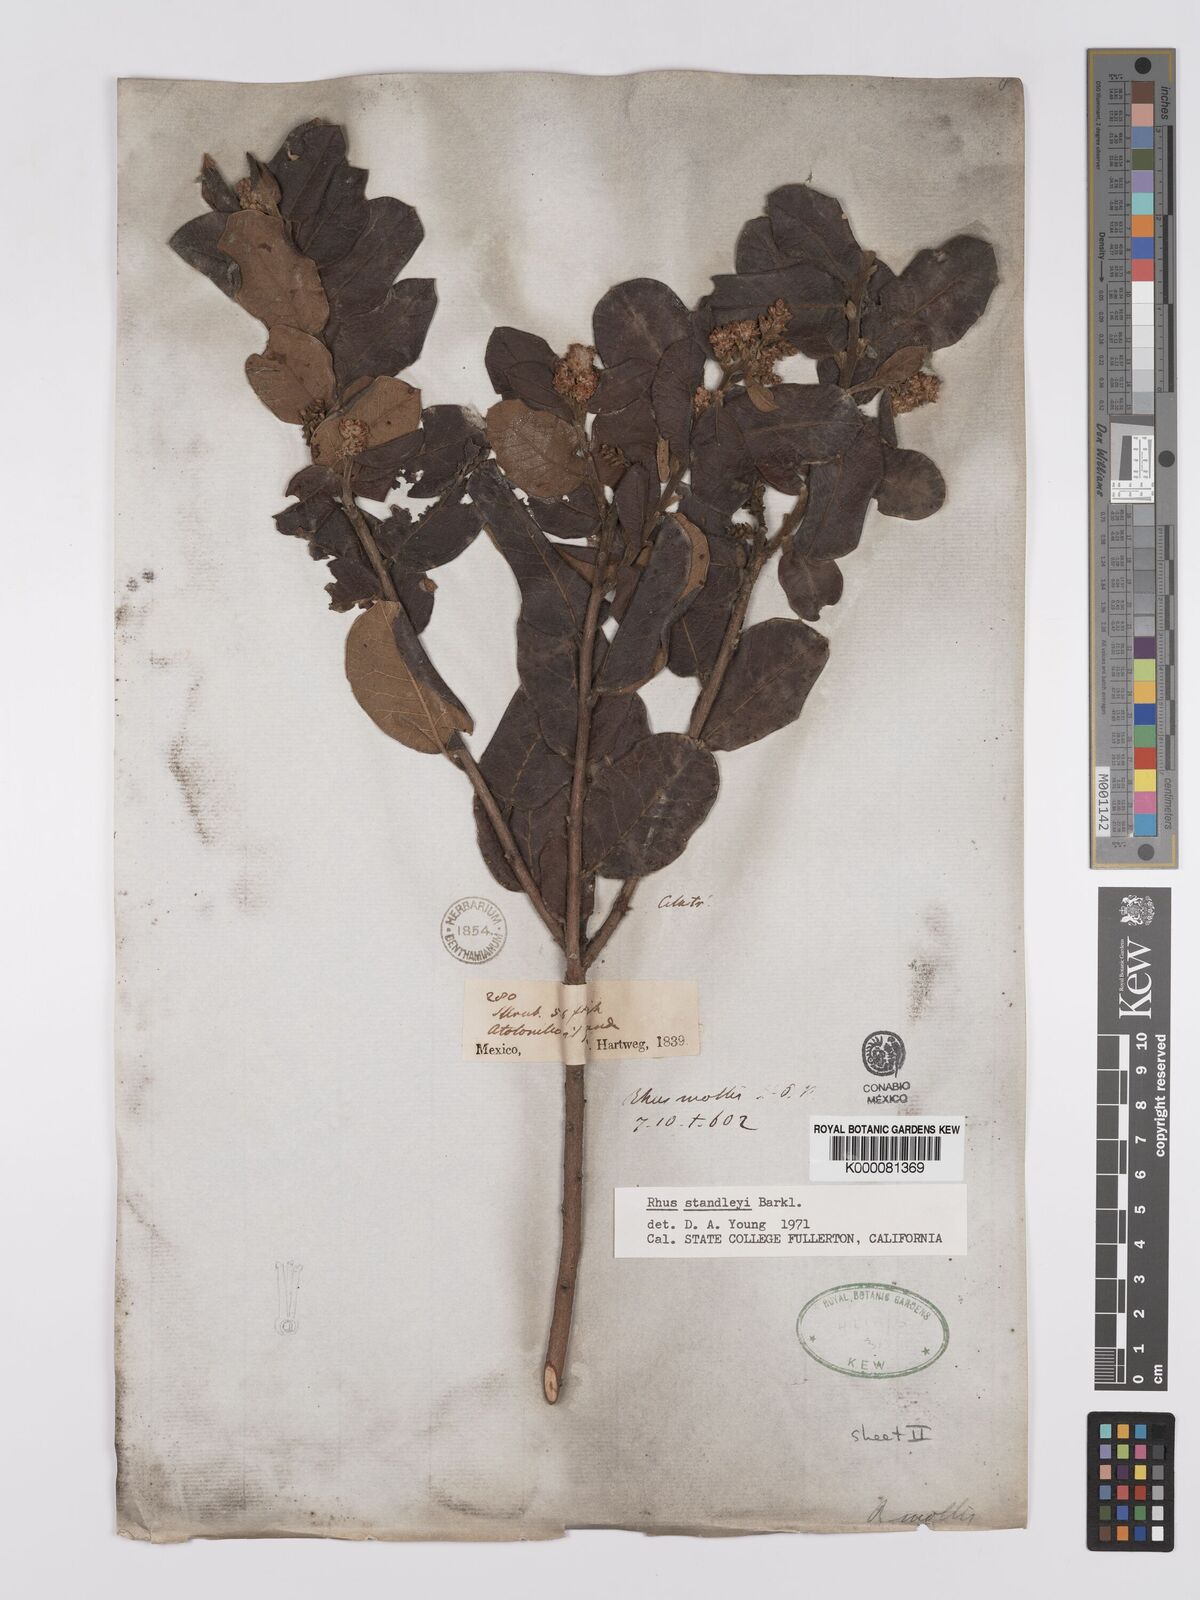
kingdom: Plantae
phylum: Tracheophyta
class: Magnoliopsida
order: Sapindales
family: Anacardiaceae
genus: Rhus
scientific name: Rhus standleyi
